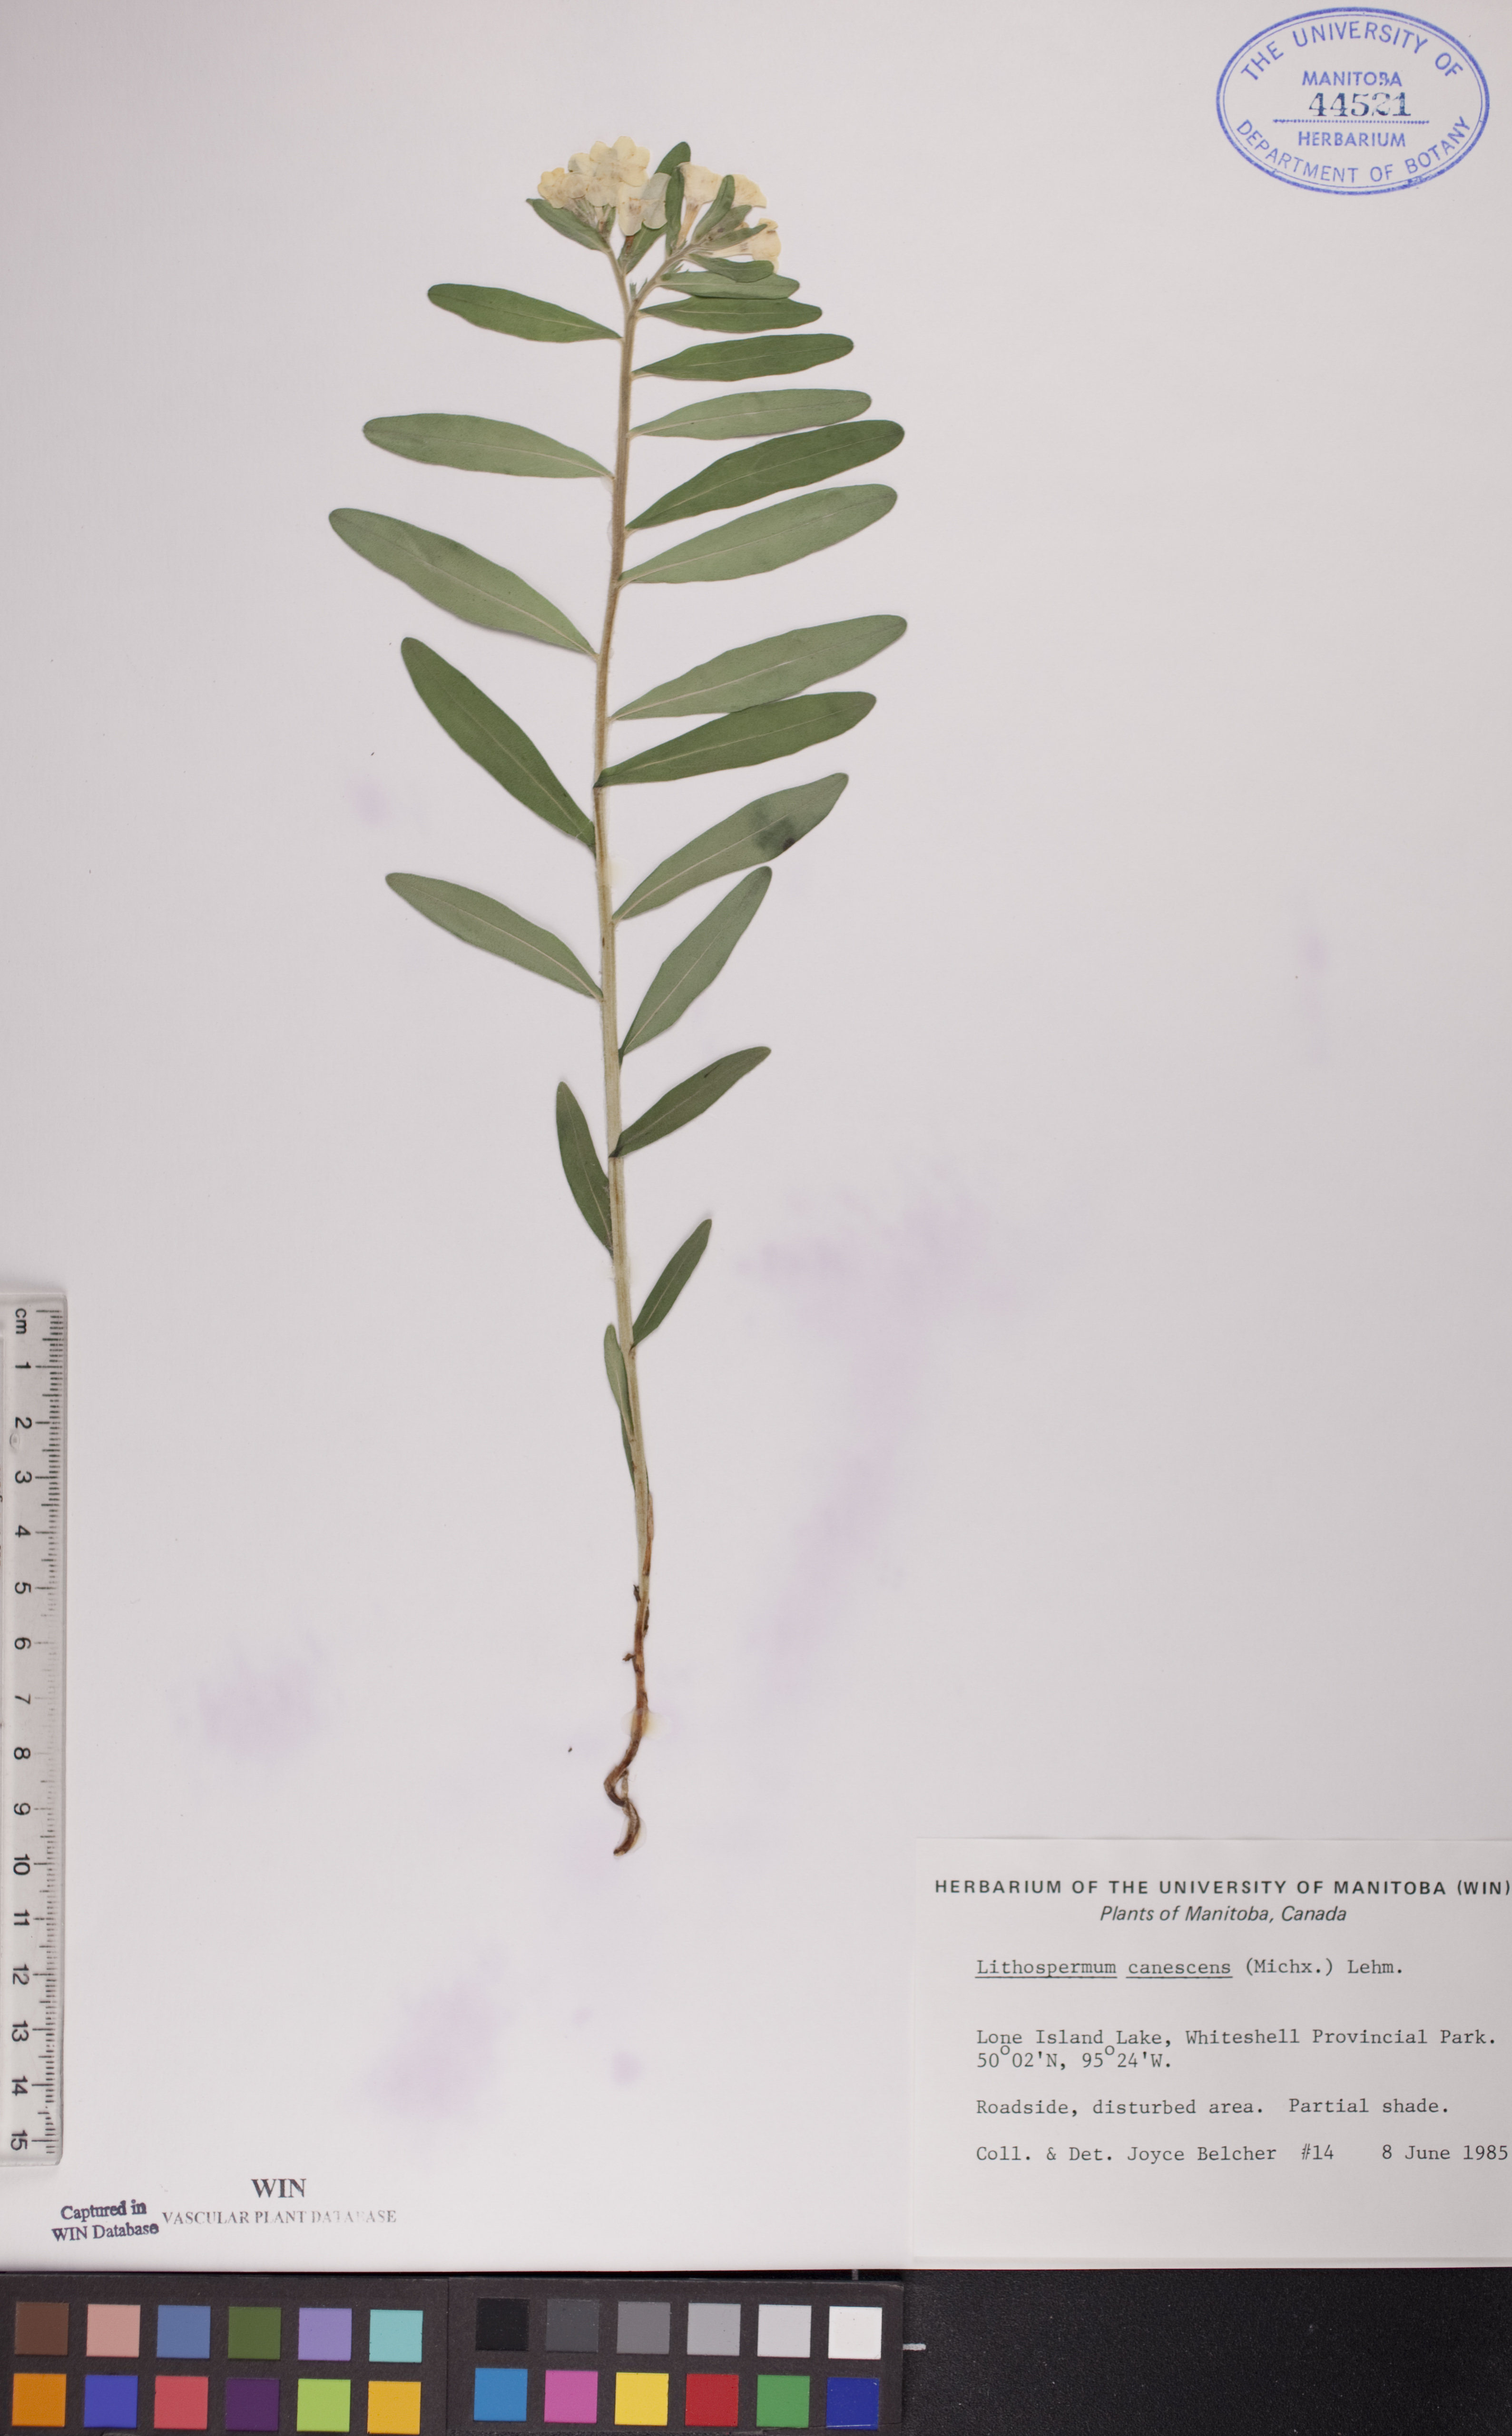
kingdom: Plantae
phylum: Tracheophyta
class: Magnoliopsida
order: Boraginales
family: Boraginaceae
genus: Lithospermum
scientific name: Lithospermum canescens
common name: Hoary puccoon
